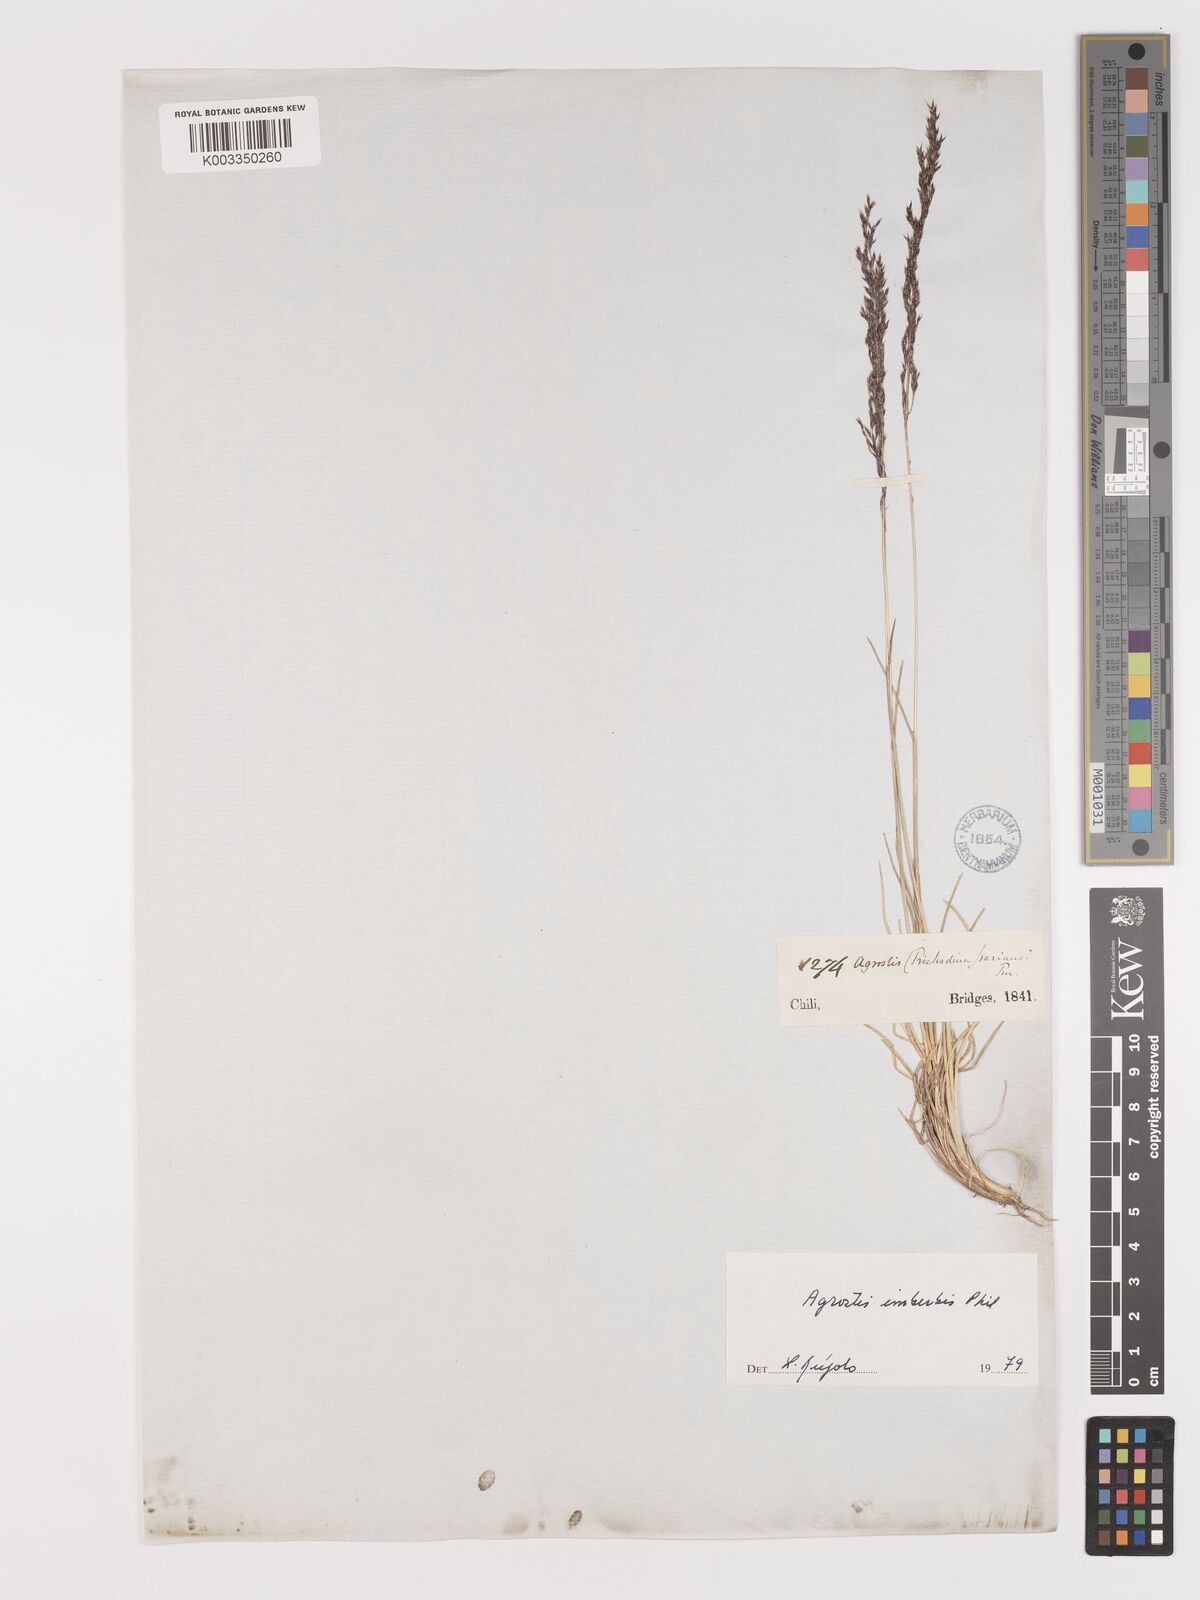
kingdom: Plantae
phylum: Tracheophyta
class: Liliopsida
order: Poales
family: Poaceae
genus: Agrostis
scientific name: Agrostis imberbis
